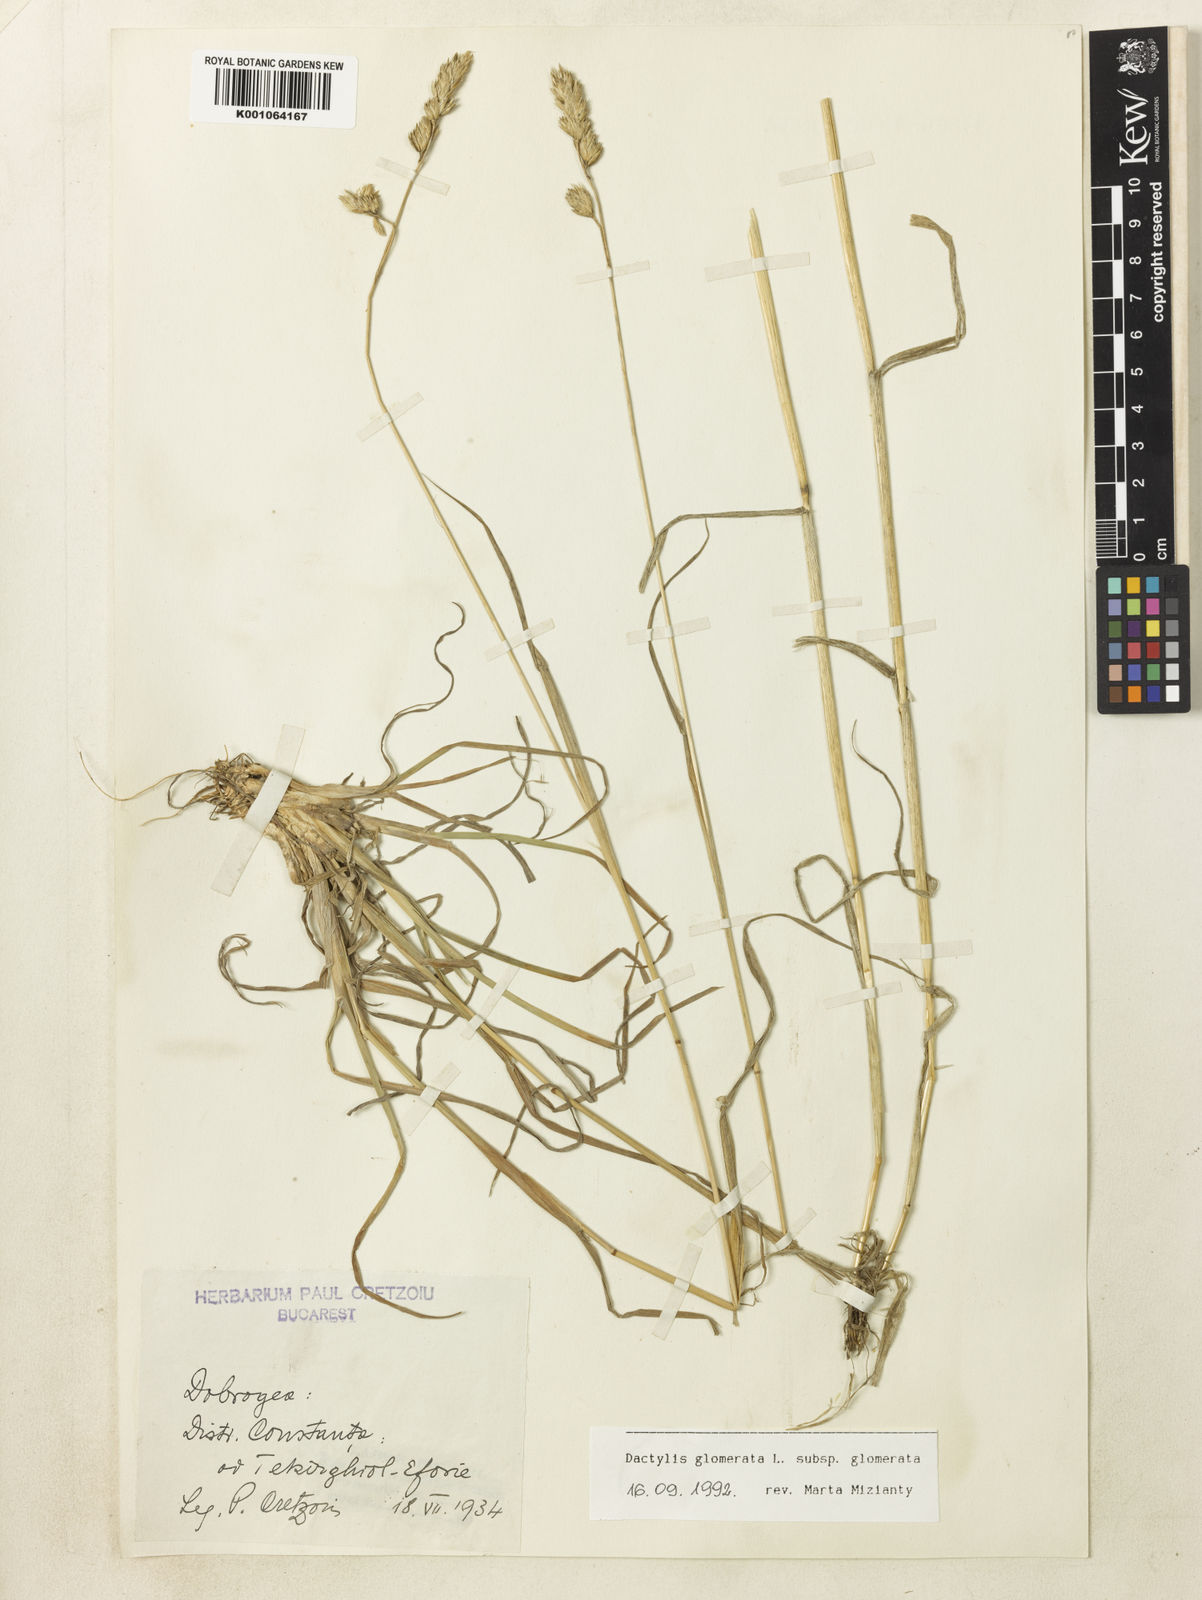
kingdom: Plantae
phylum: Tracheophyta
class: Liliopsida
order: Poales
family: Poaceae
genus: Dactylis
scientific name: Dactylis glomerata
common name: Orchardgrass
